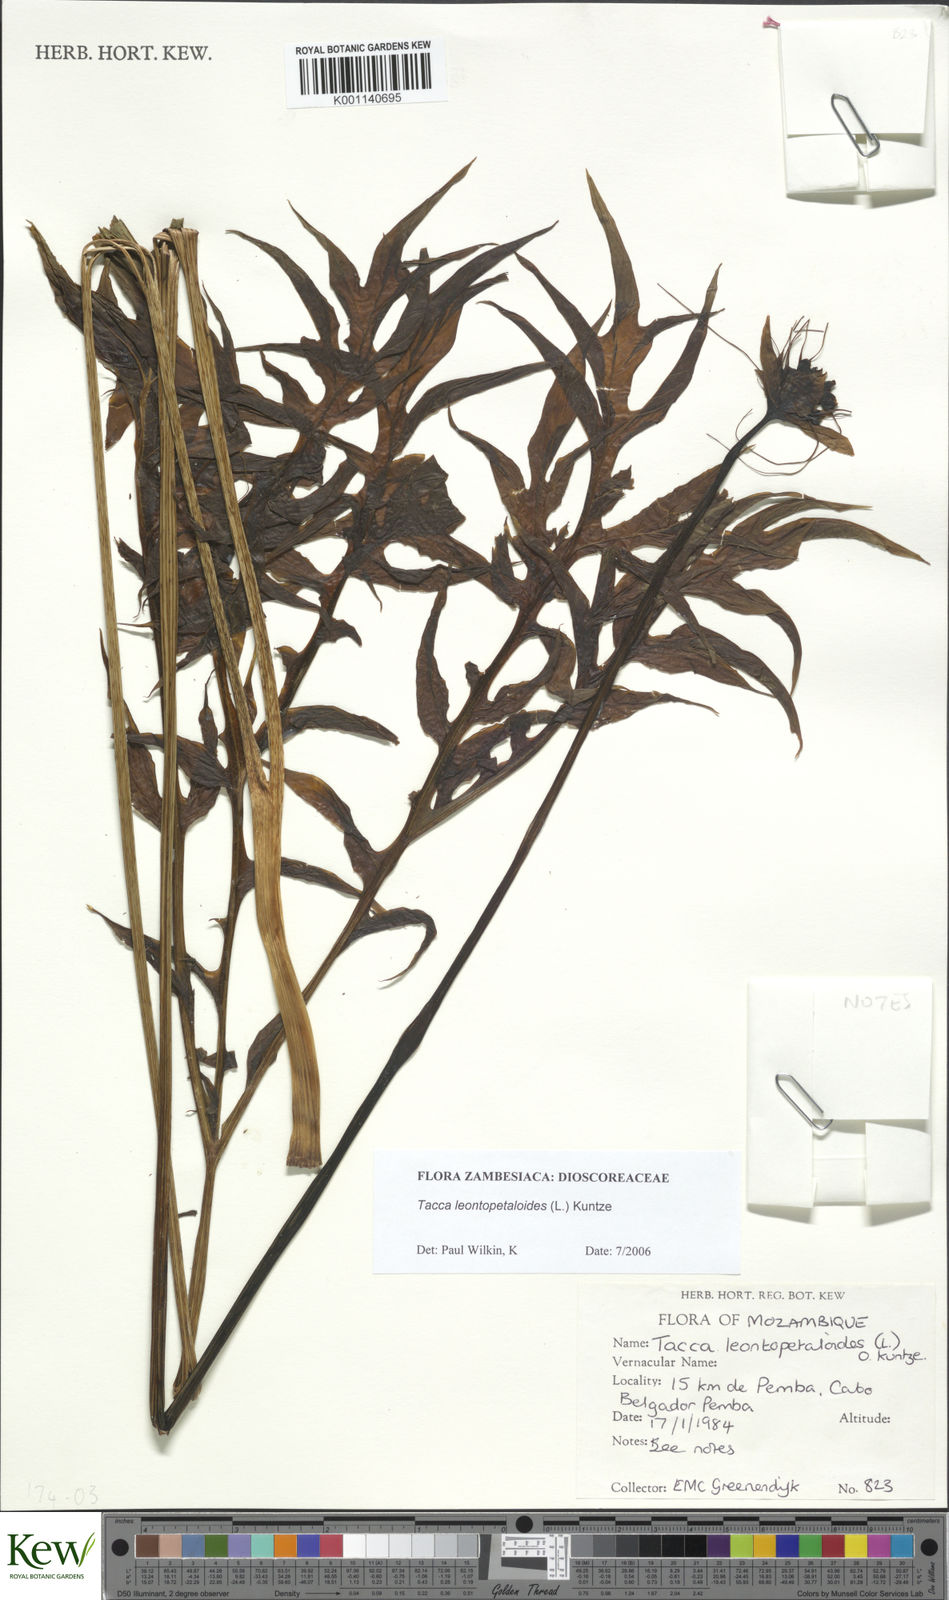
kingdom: Plantae
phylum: Tracheophyta
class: Liliopsida
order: Dioscoreales
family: Dioscoreaceae
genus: Tacca
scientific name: Tacca leontopetaloides
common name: Arrowroot
